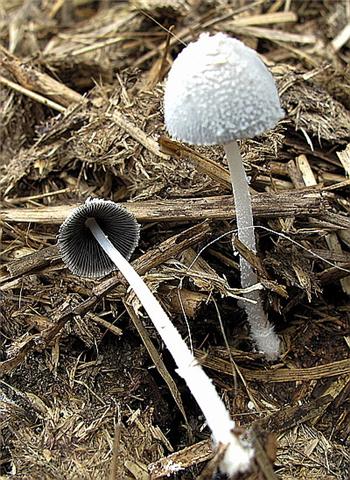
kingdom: Fungi
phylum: Basidiomycota
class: Agaricomycetes
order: Agaricales
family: Psathyrellaceae
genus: Coprinopsis
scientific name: Coprinopsis nivea
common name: snehvid blækhat
